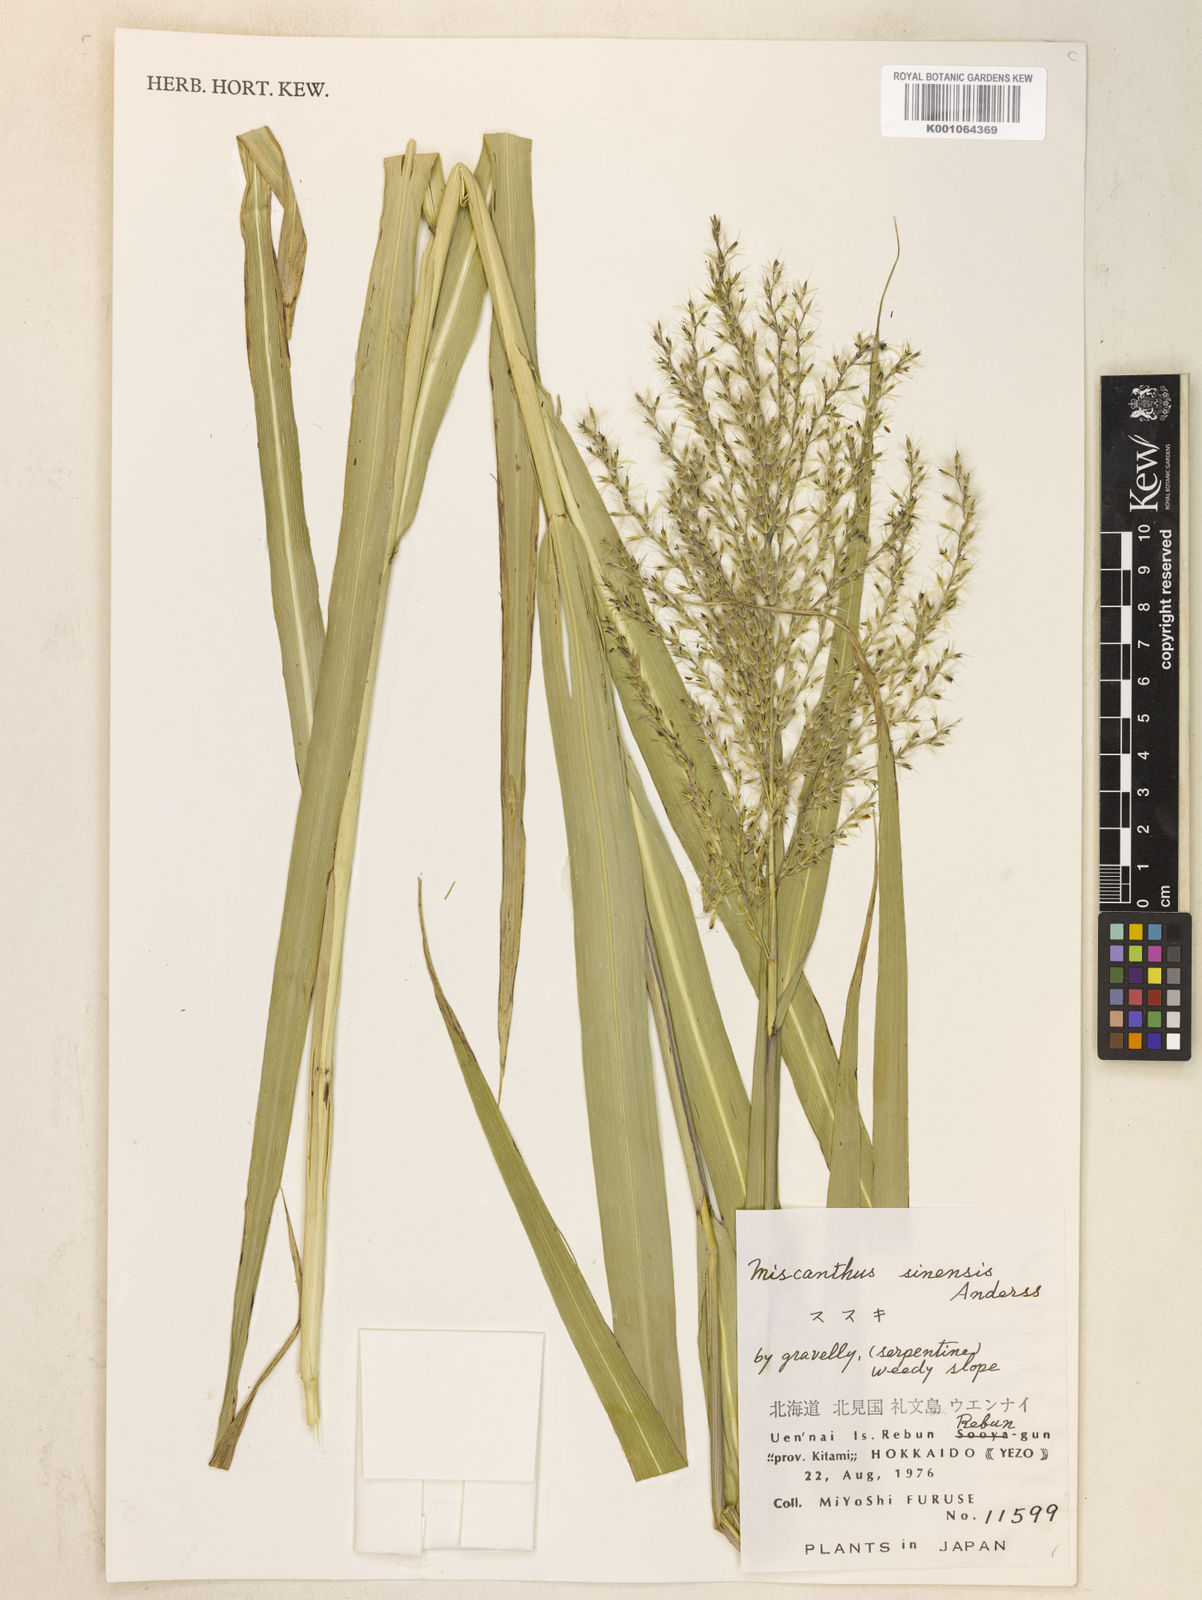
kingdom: Plantae
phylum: Tracheophyta
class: Liliopsida
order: Poales
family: Poaceae
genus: Miscanthus
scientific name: Miscanthus sinensis
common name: Chinese silvergrass
